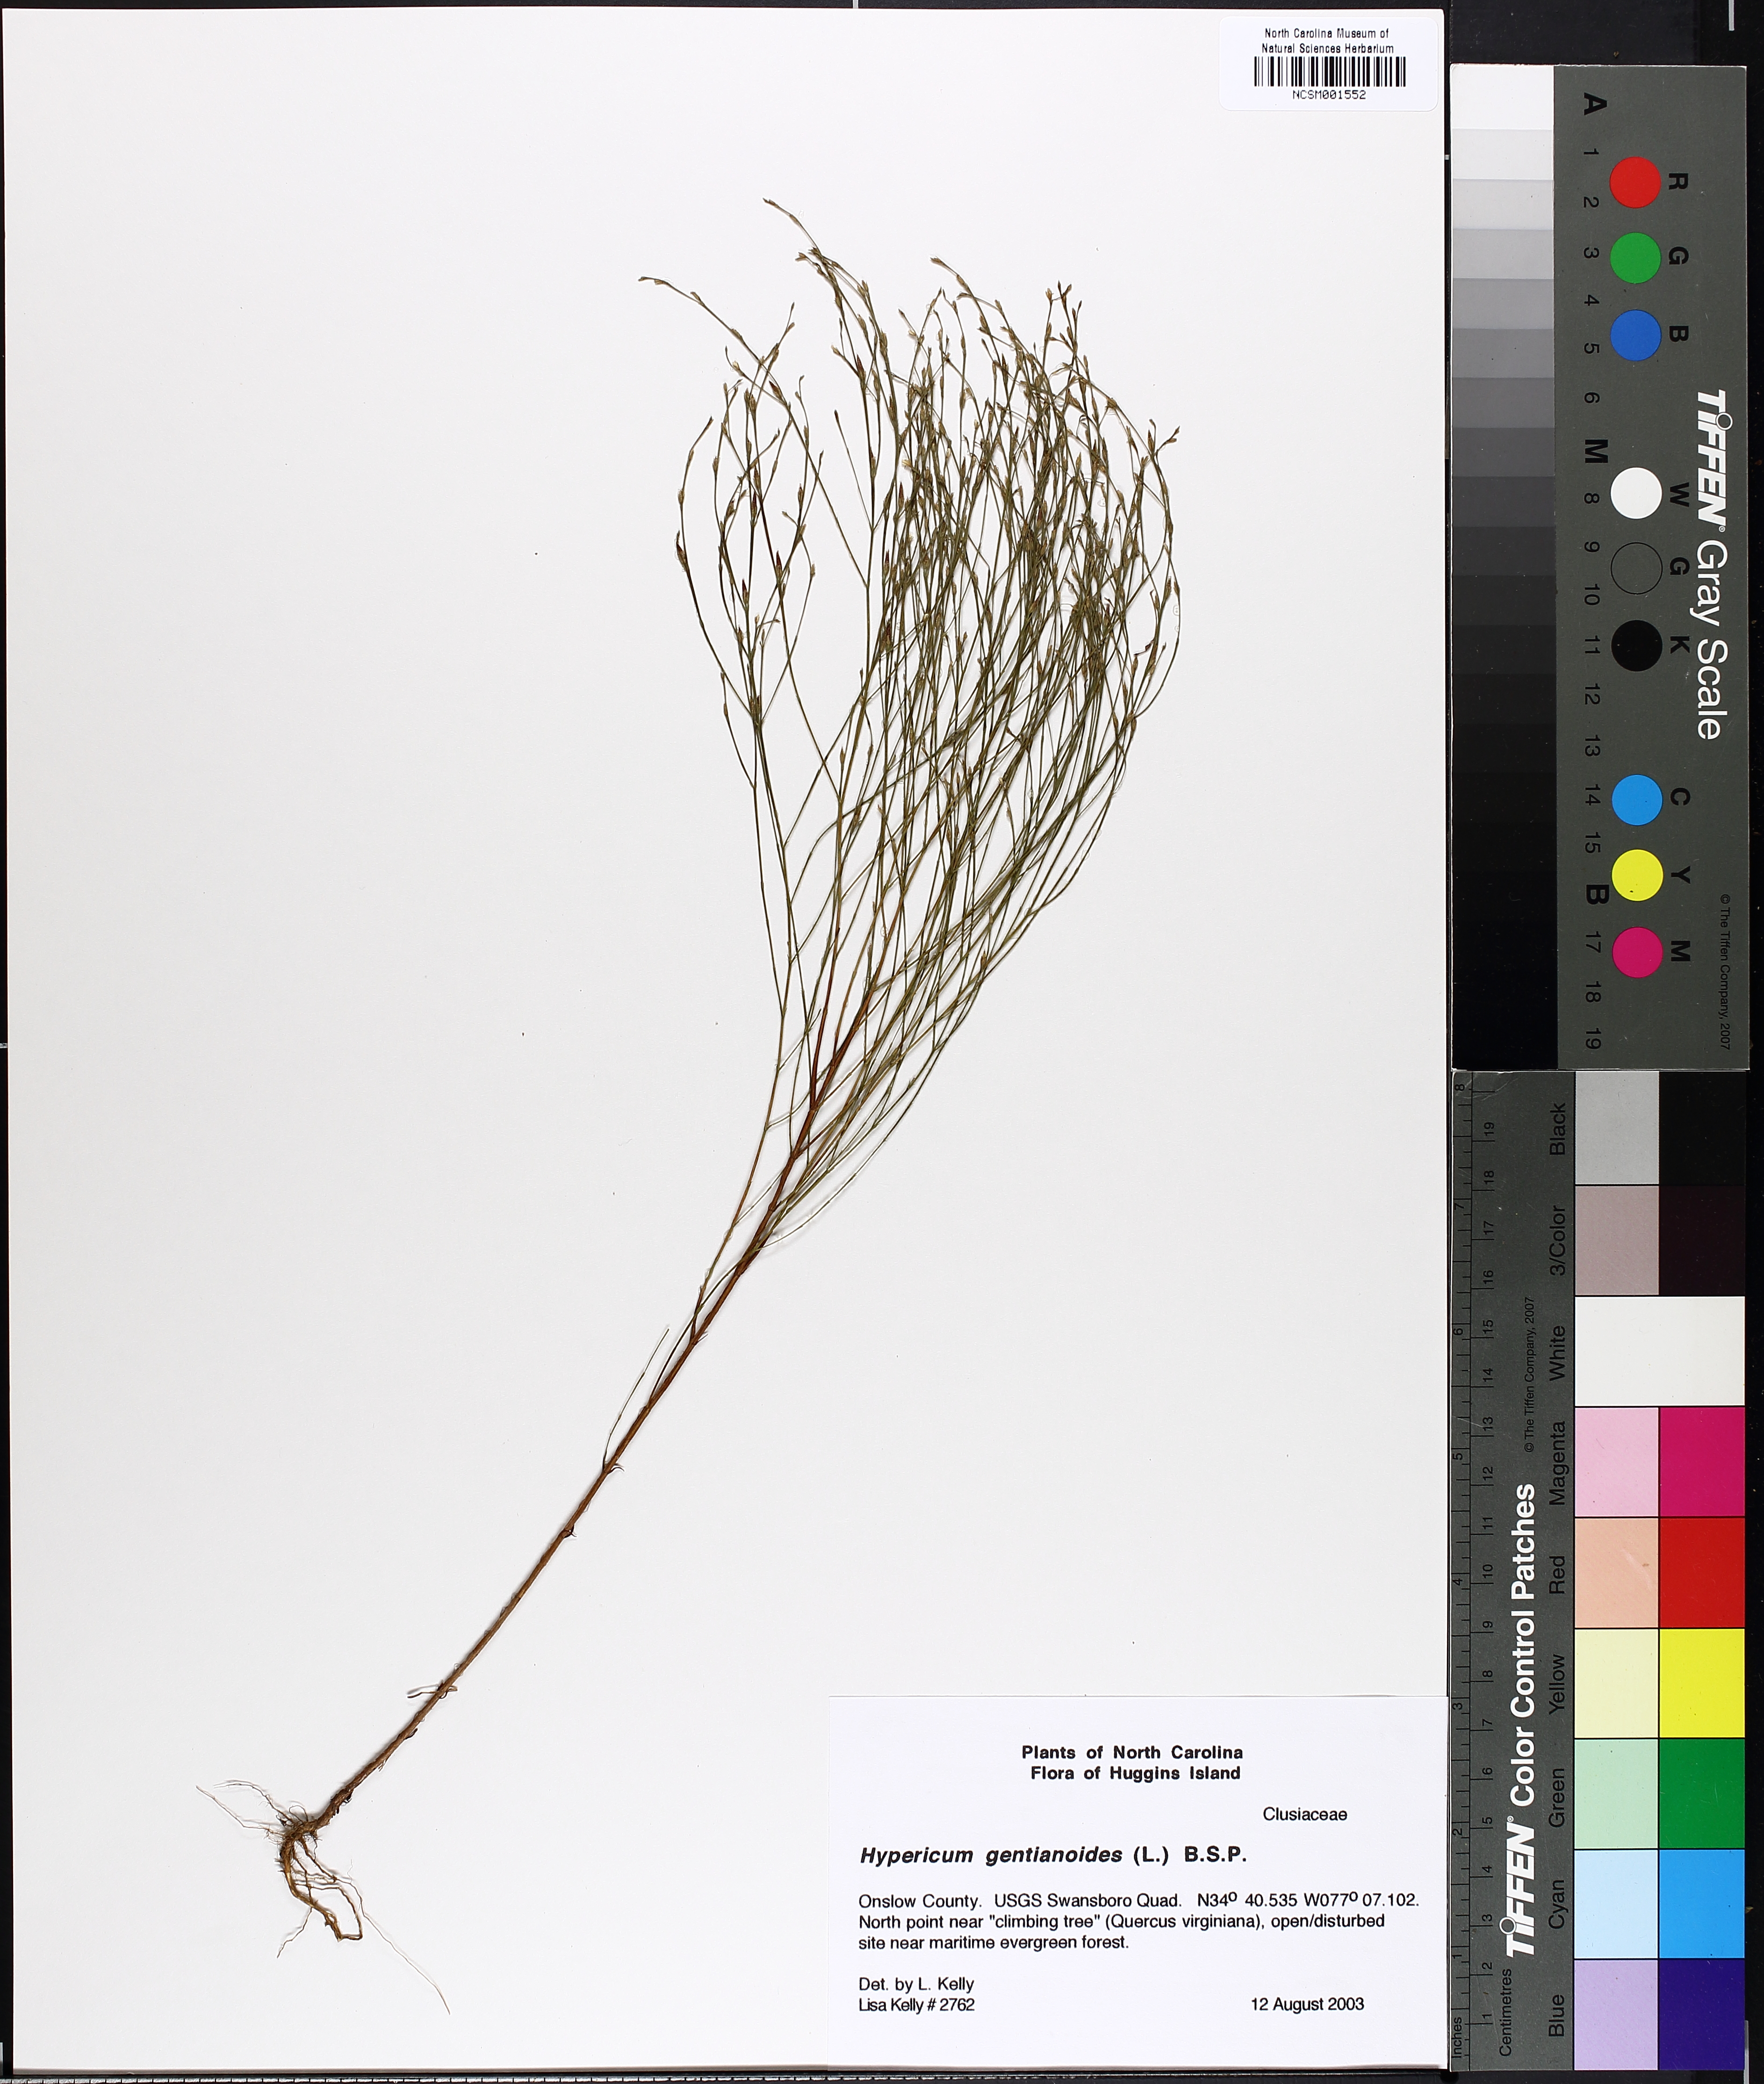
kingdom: Plantae
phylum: Tracheophyta
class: Magnoliopsida
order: Malpighiales
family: Hypericaceae
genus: Hypericum
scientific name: Hypericum gentianoides
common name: Gentian-leaved st. john's-wort
